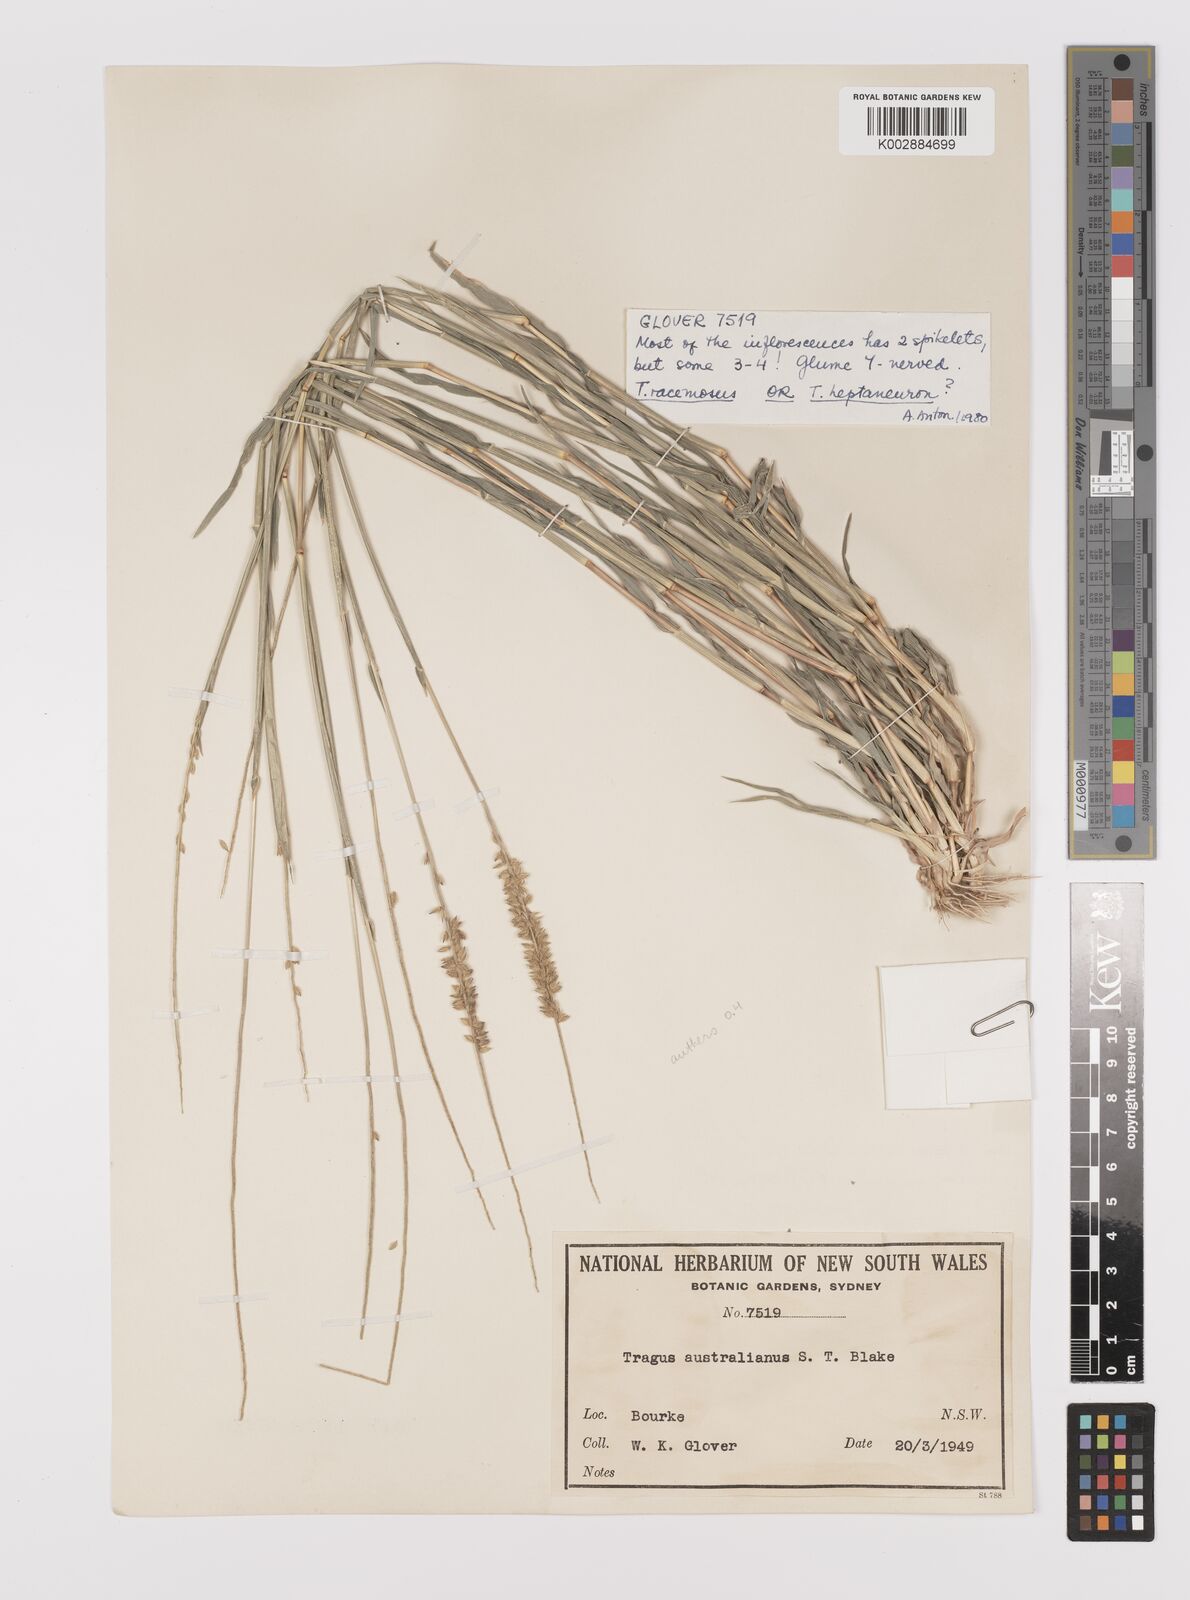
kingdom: Plantae
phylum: Tracheophyta
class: Liliopsida
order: Poales
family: Poaceae
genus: Tragus
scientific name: Tragus australianus
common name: Australian bur-grass
